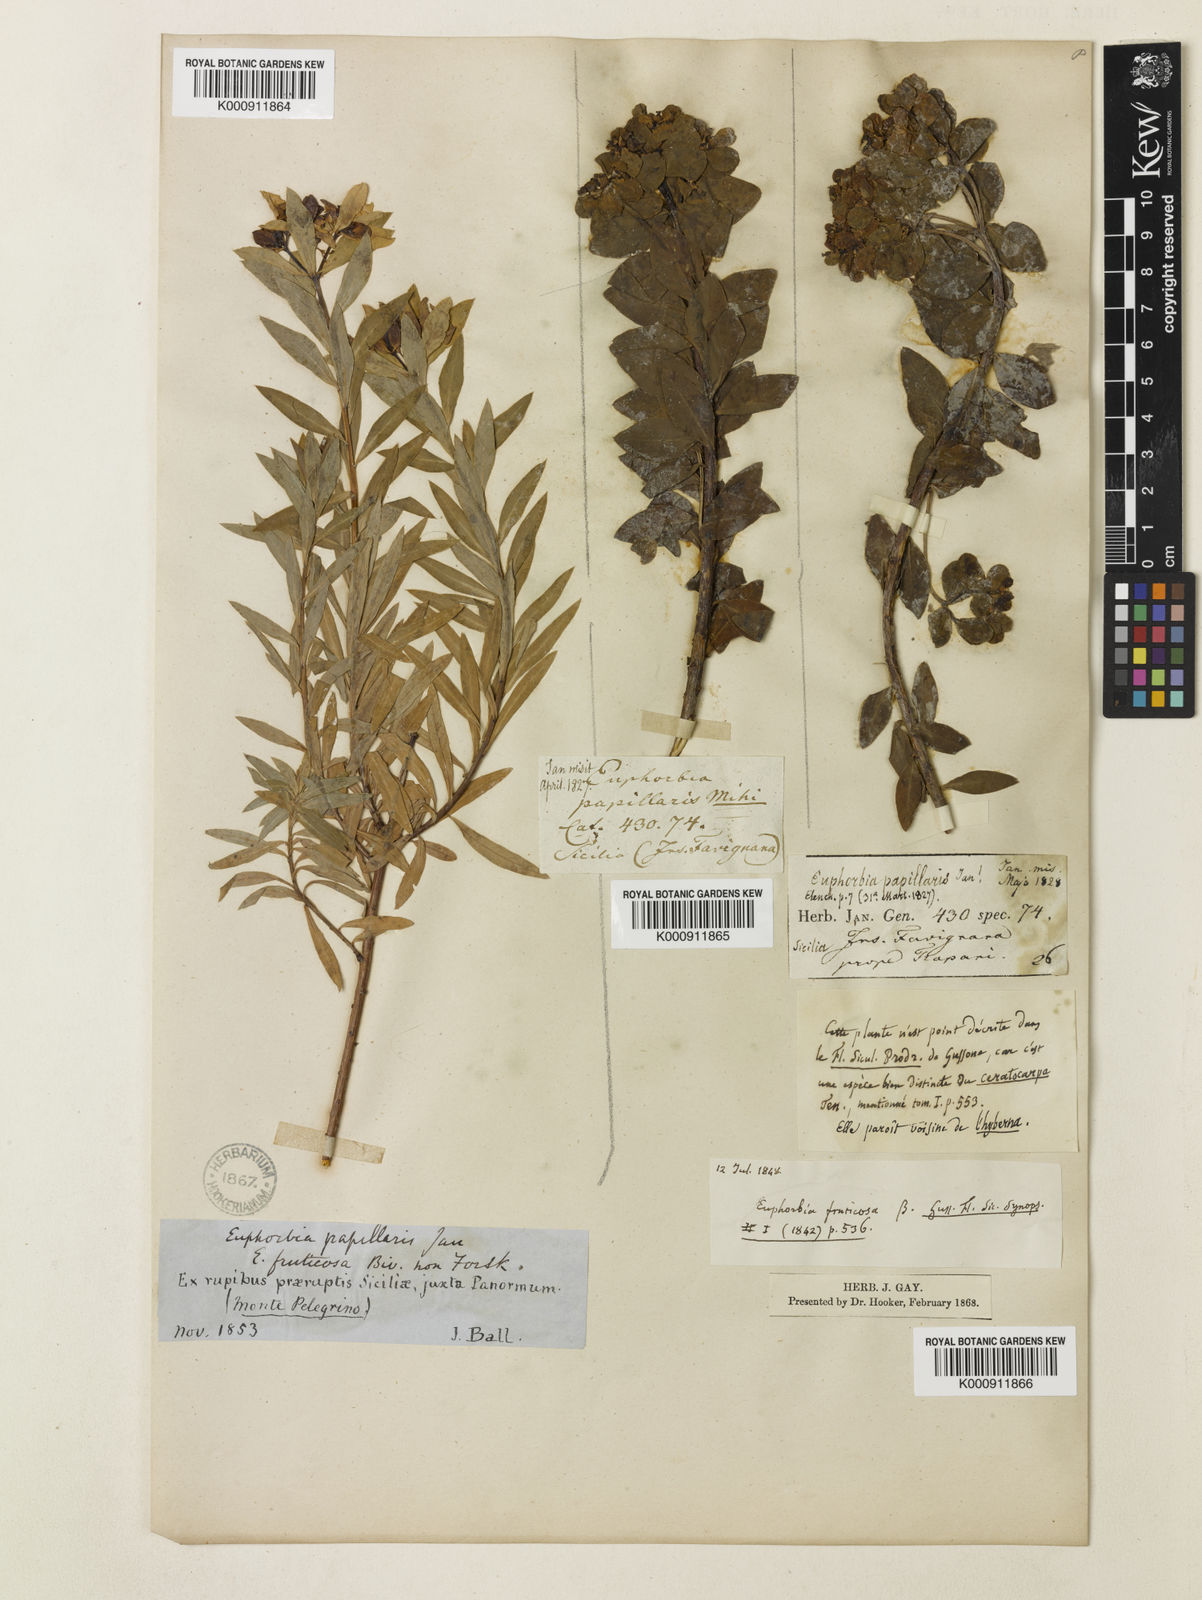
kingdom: Plantae
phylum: Tracheophyta
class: Magnoliopsida
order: Malpighiales
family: Euphorbiaceae
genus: Euphorbia
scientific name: Euphorbia bivonae
